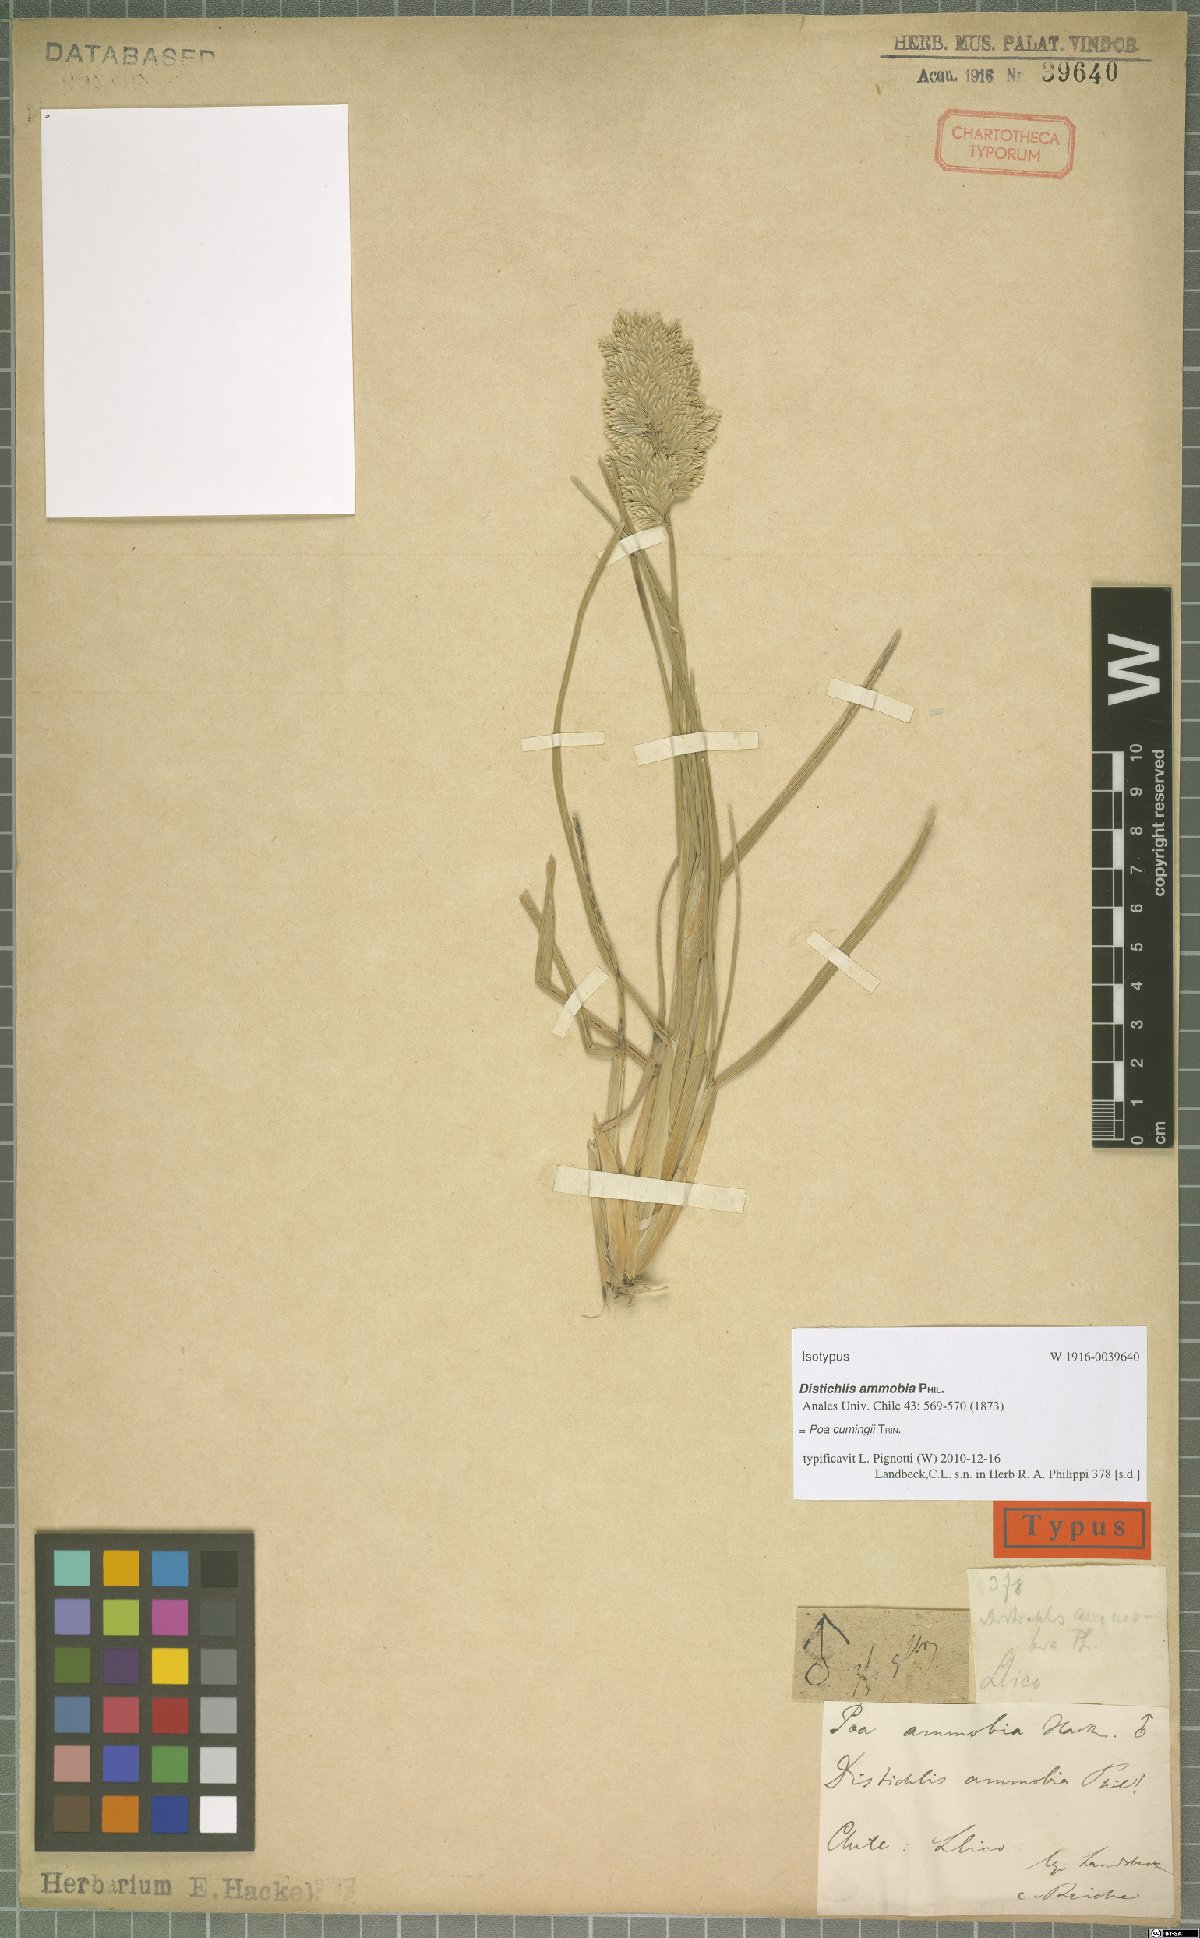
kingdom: Plantae
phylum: Tracheophyta
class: Liliopsida
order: Poales
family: Poaceae
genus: Poa
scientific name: Poa cumingii
